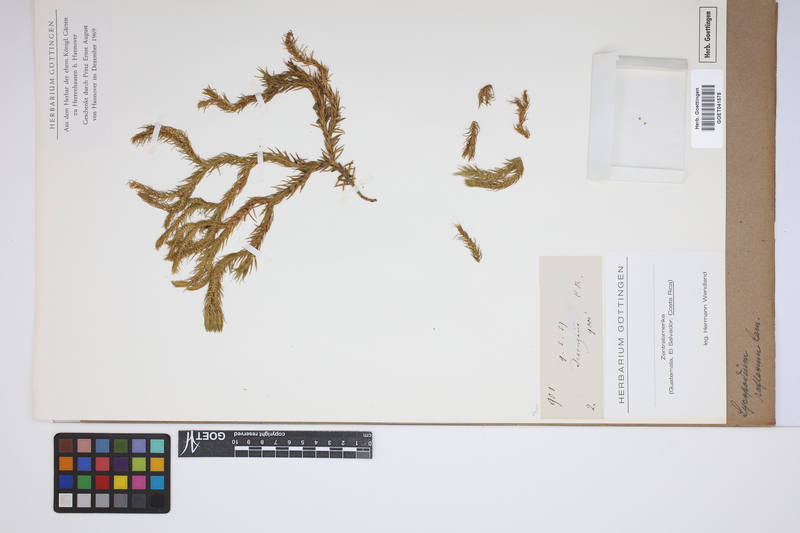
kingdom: Plantae
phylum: Tracheophyta
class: Lycopodiopsida
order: Lycopodiales
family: Lycopodiaceae
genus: Huperzia
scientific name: Huperzia lucidula
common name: Shining clubmoss
